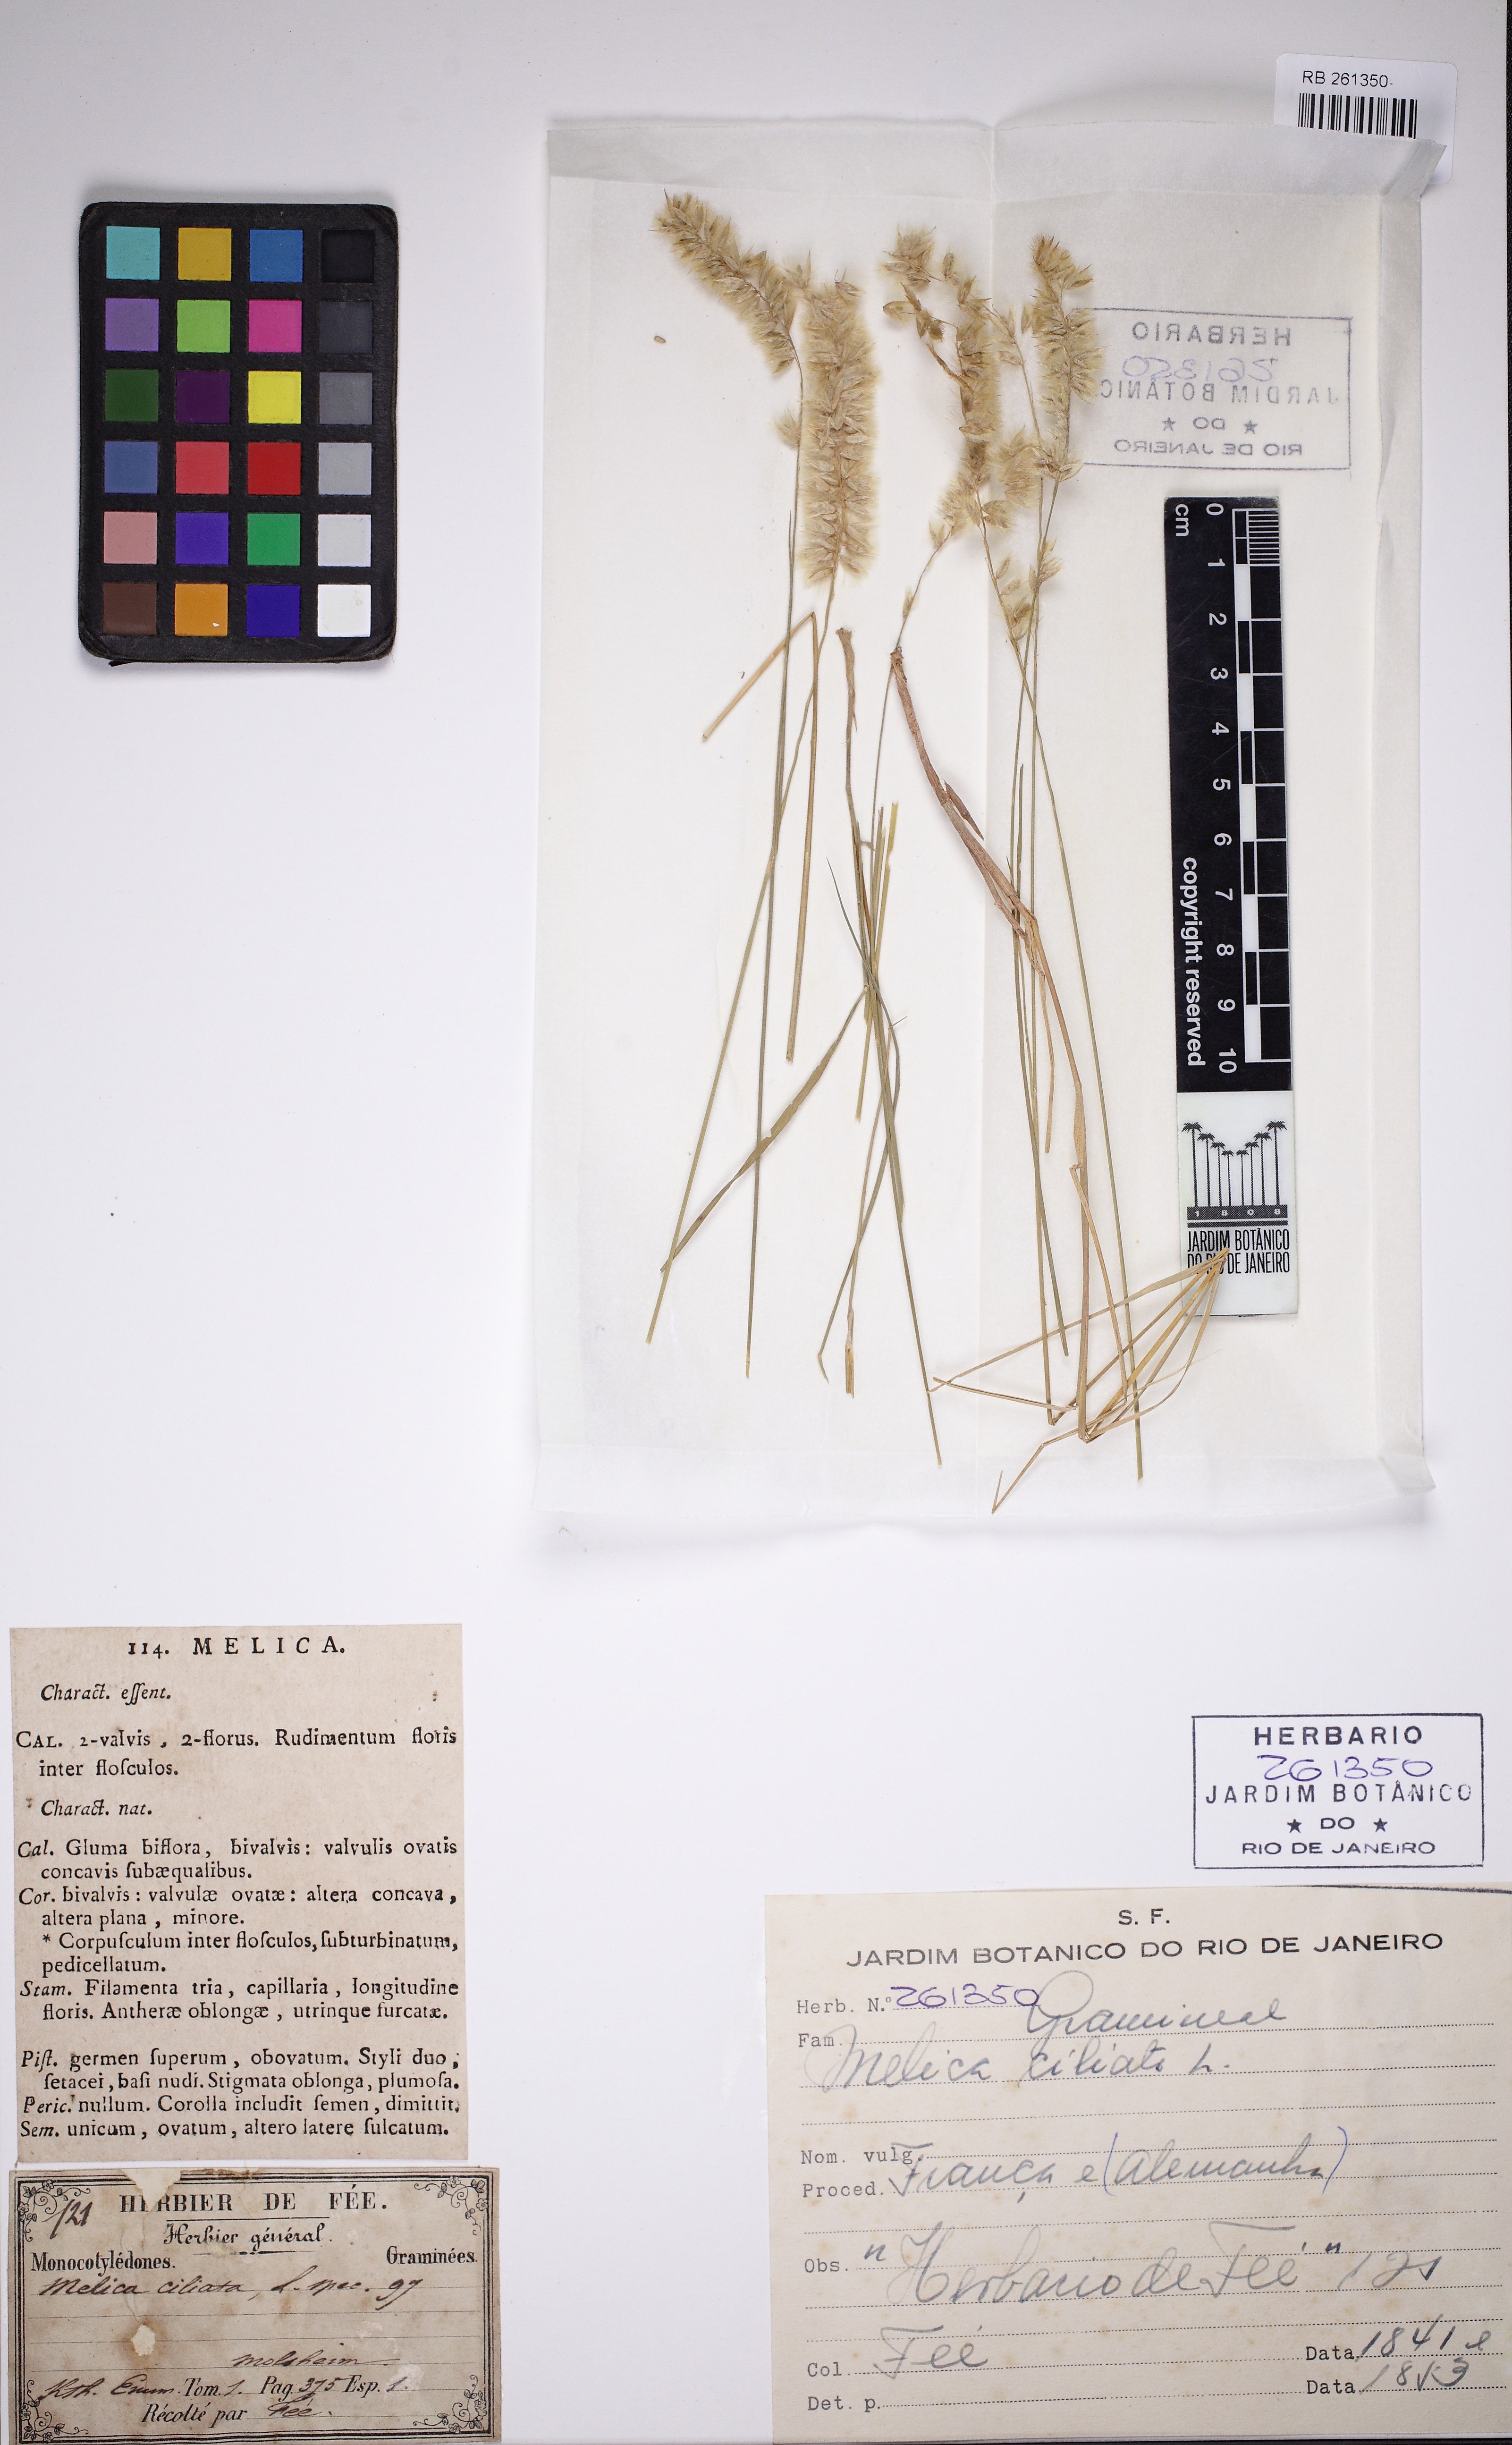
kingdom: Plantae
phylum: Tracheophyta
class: Liliopsida
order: Poales
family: Poaceae
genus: Melica
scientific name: Melica ciliata
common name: Hairy melicgrass
